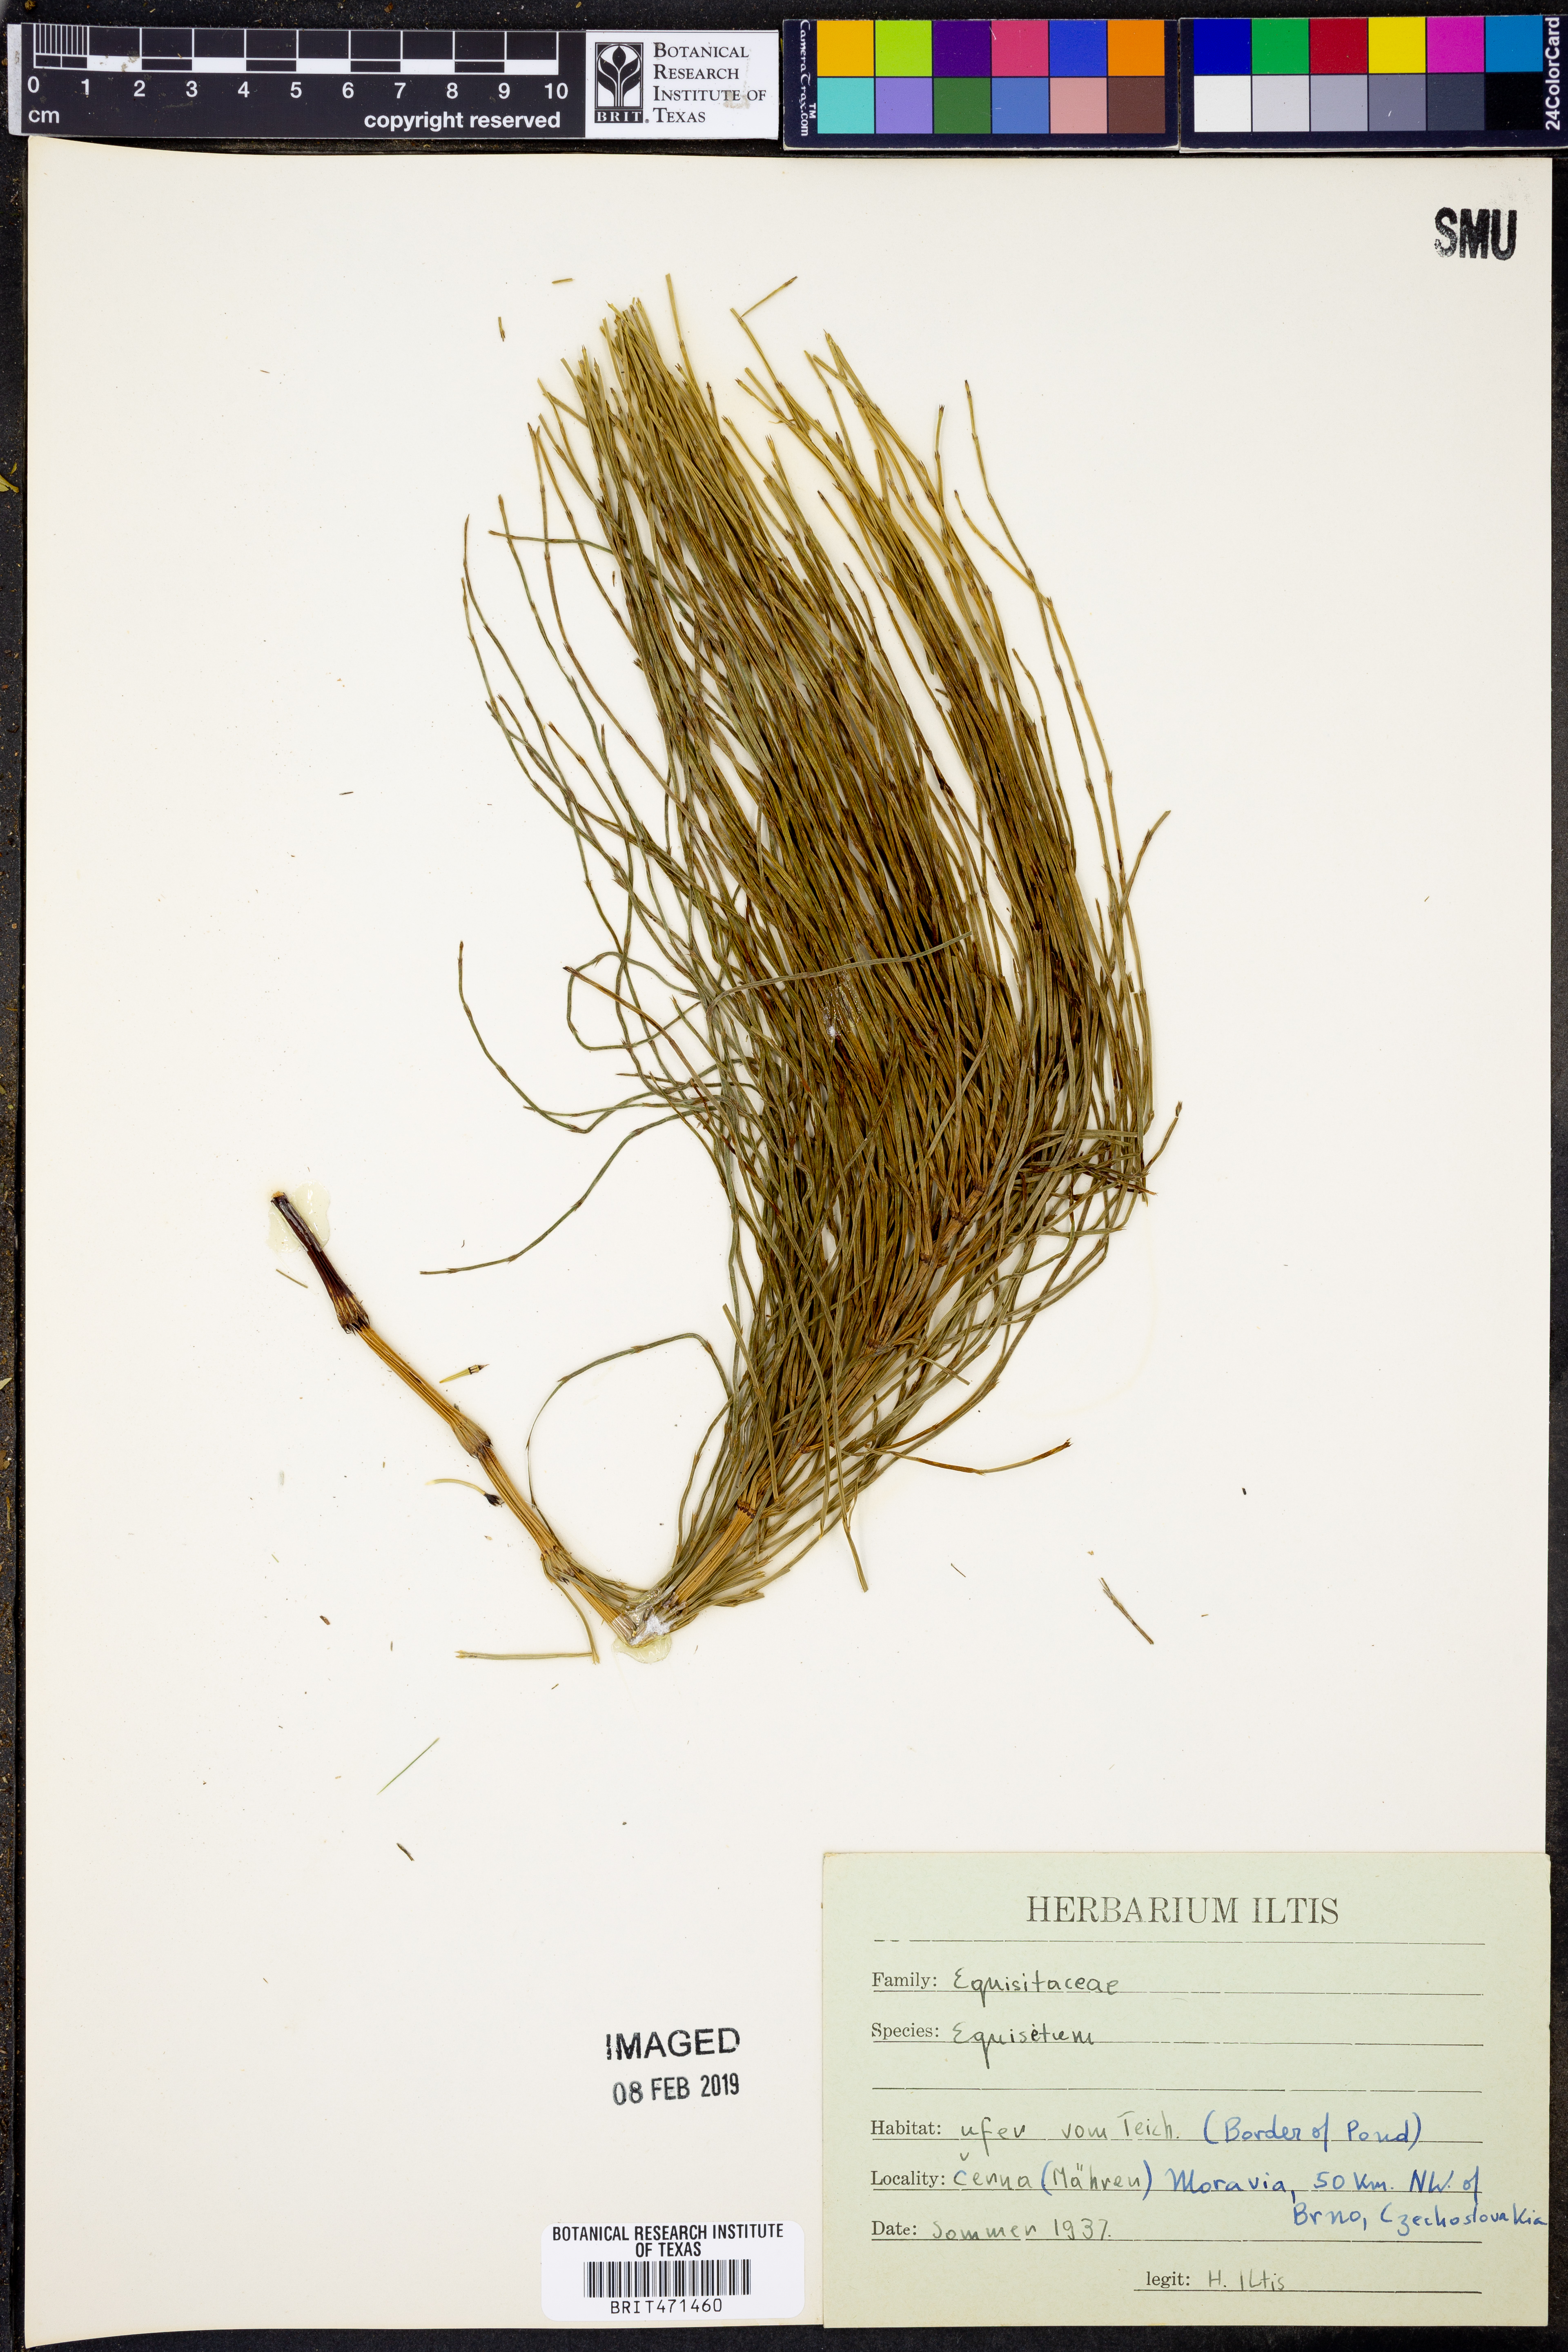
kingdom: Plantae
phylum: Tracheophyta
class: Polypodiopsida
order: Equisetales
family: Equisetaceae
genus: Equisetum
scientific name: Equisetum
